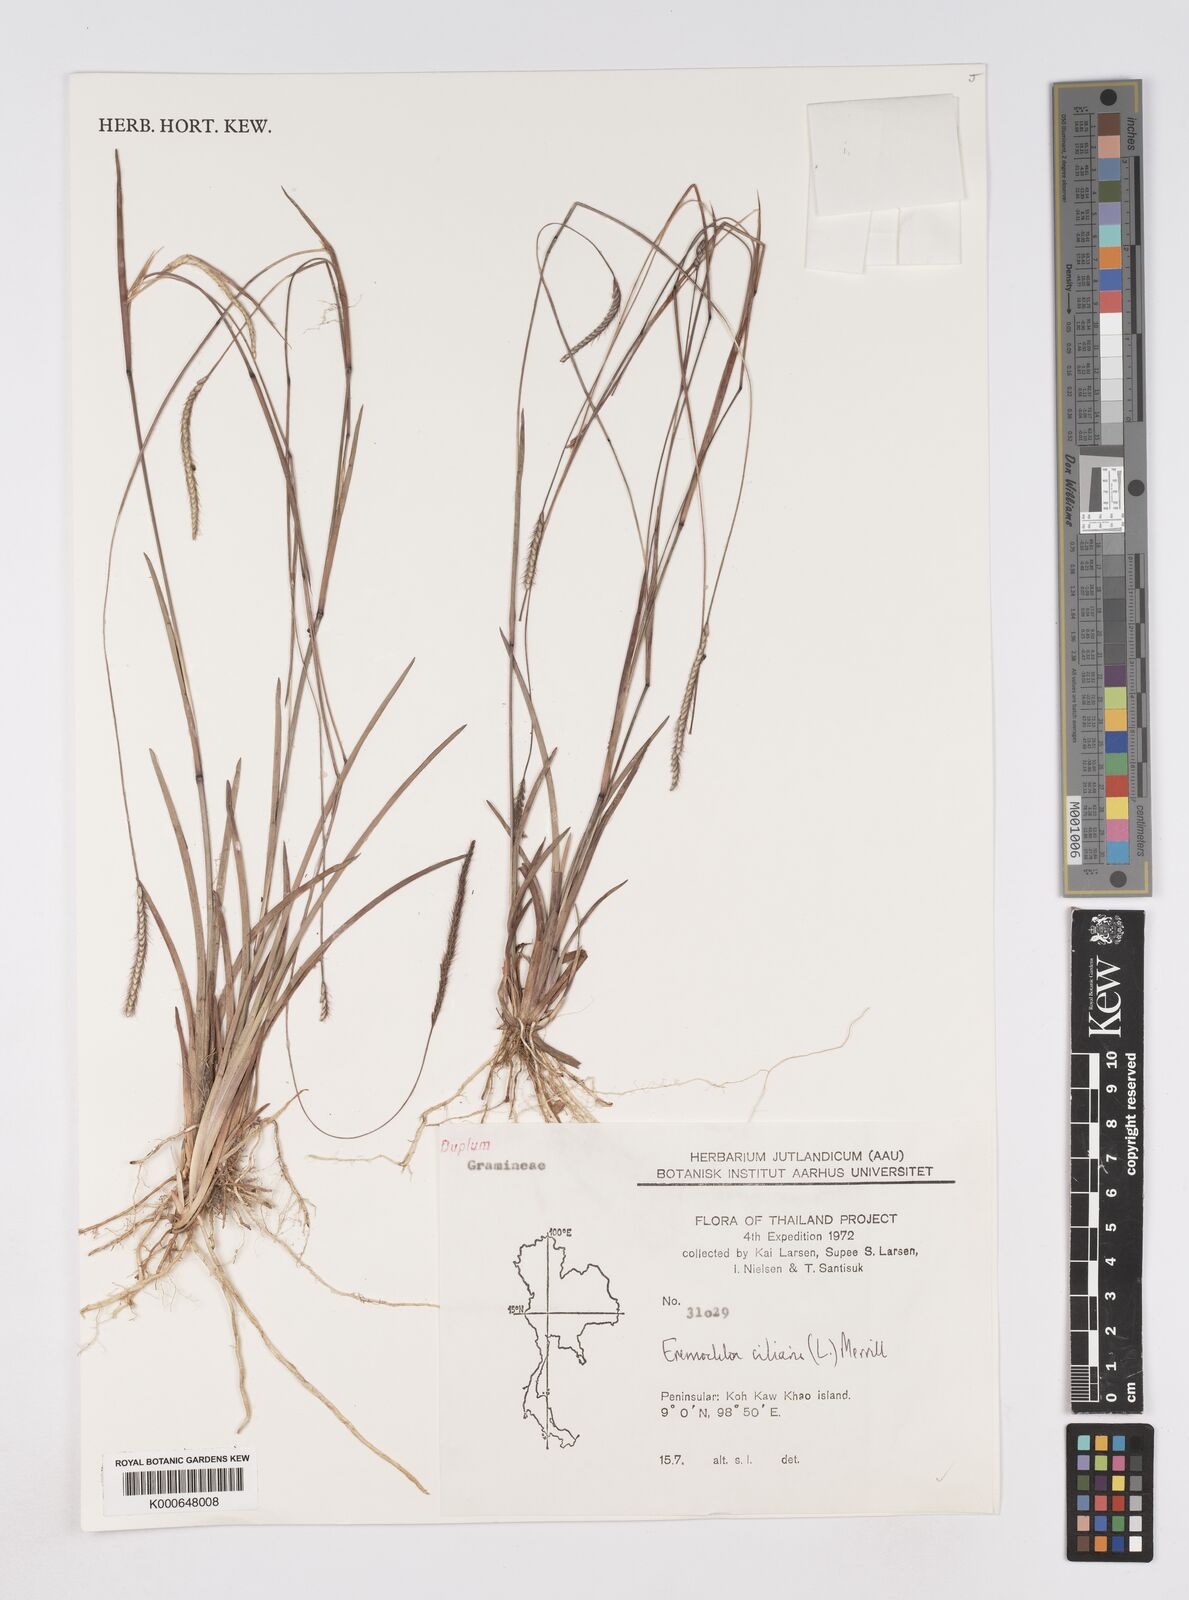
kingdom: Plantae
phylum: Tracheophyta
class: Liliopsida
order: Poales
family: Poaceae
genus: Eremochloa
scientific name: Eremochloa ciliaris
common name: Fringed centipede grass
